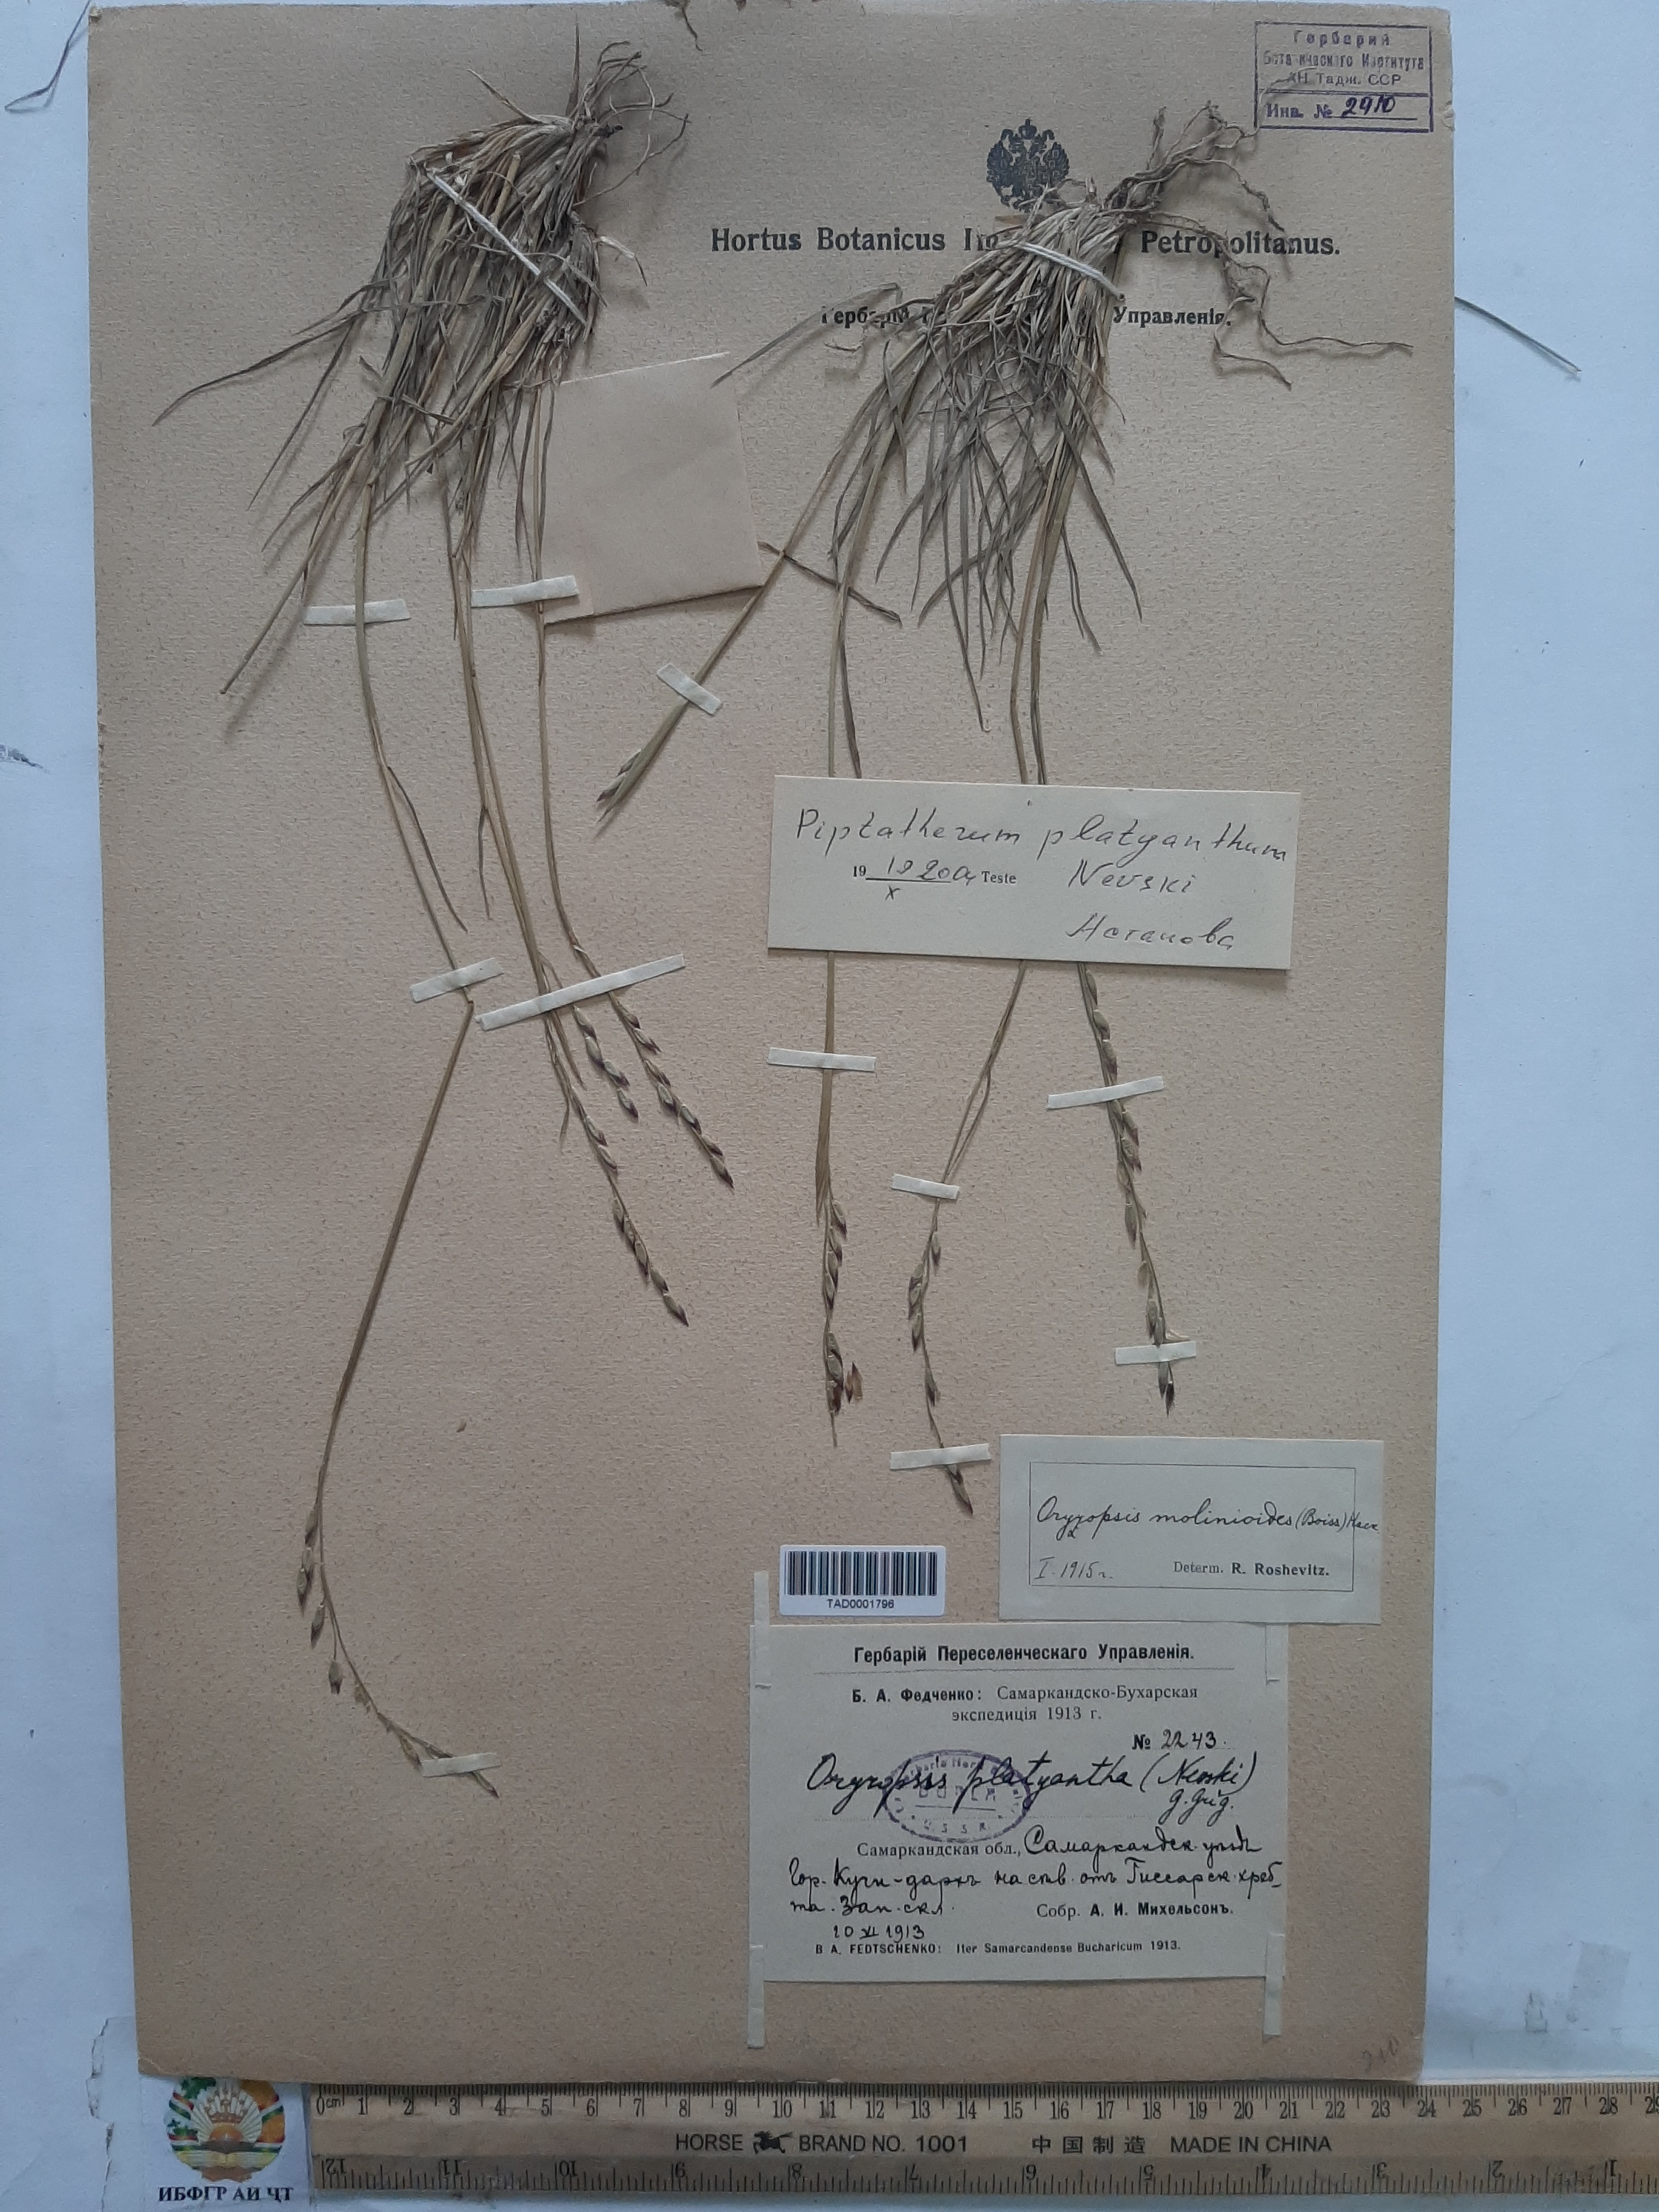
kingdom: Plantae
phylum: Tracheophyta
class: Liliopsida
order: Poales
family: Poaceae
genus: Piptatherum
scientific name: Piptatherum platyanthum
